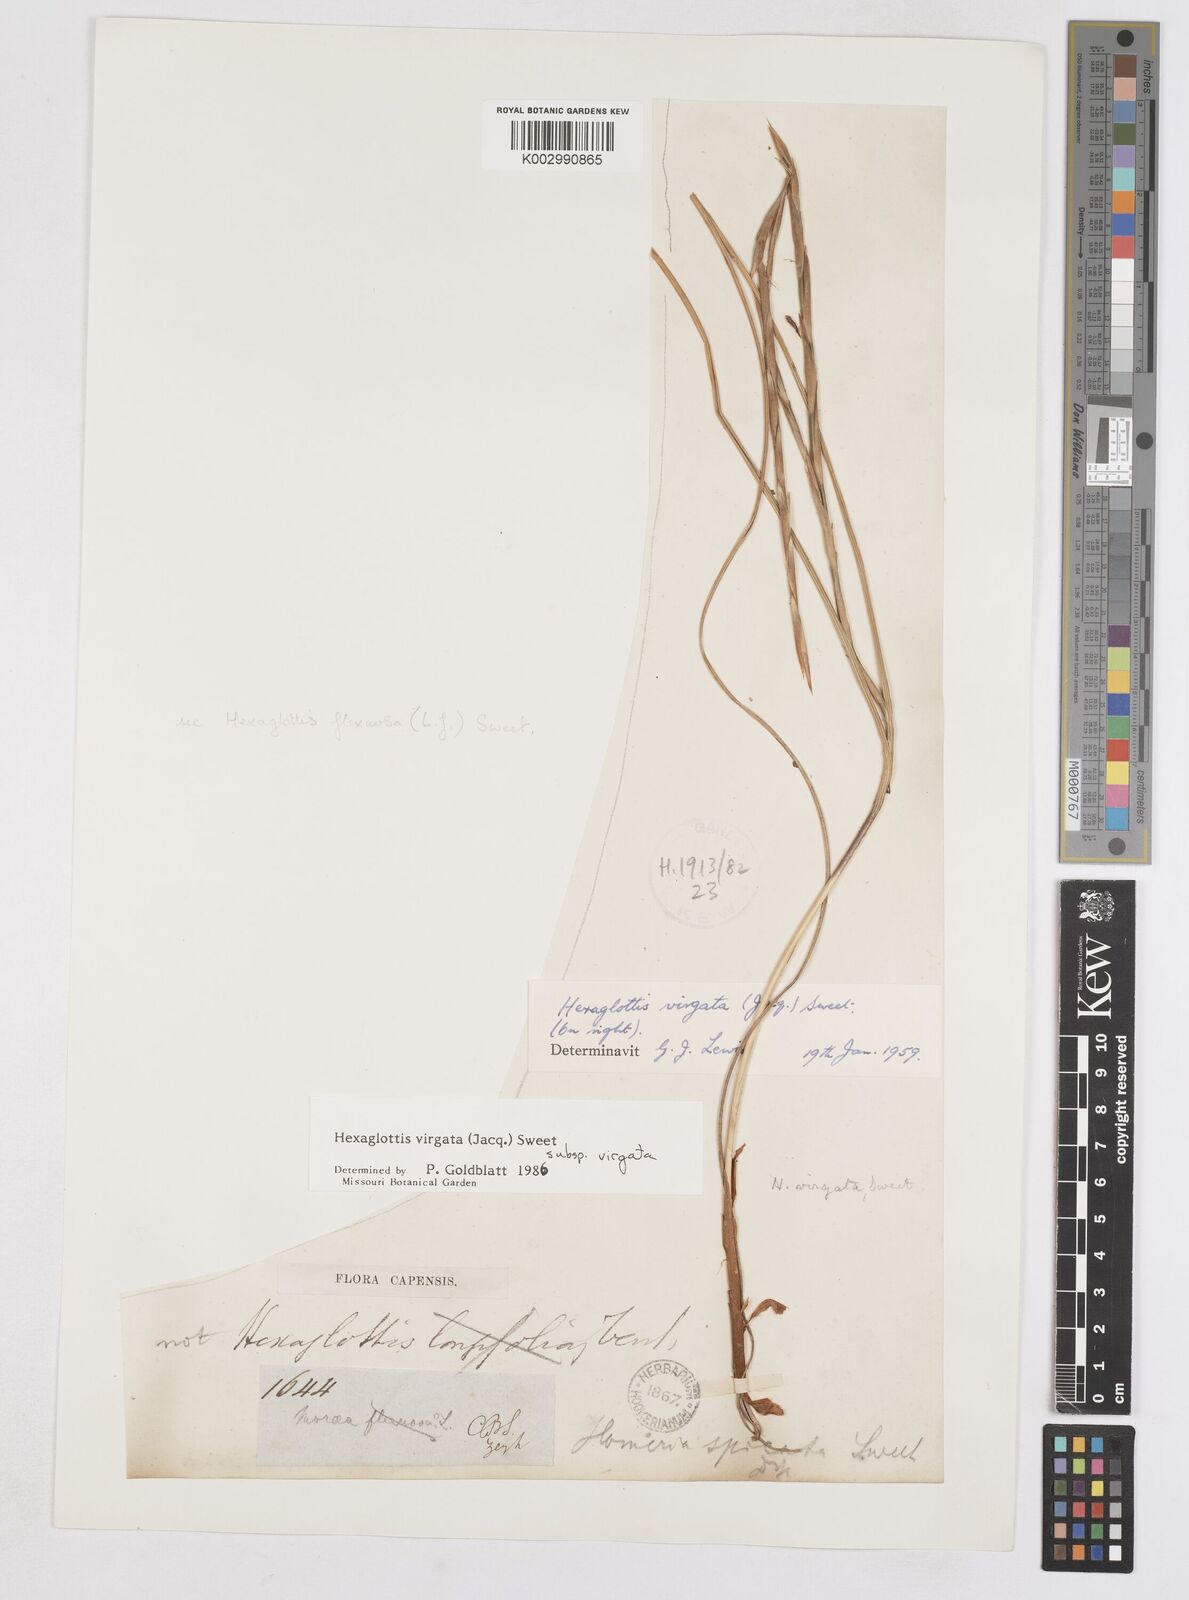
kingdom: Plantae
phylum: Tracheophyta
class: Liliopsida
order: Asparagales
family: Iridaceae
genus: Moraea
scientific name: Moraea virgata
